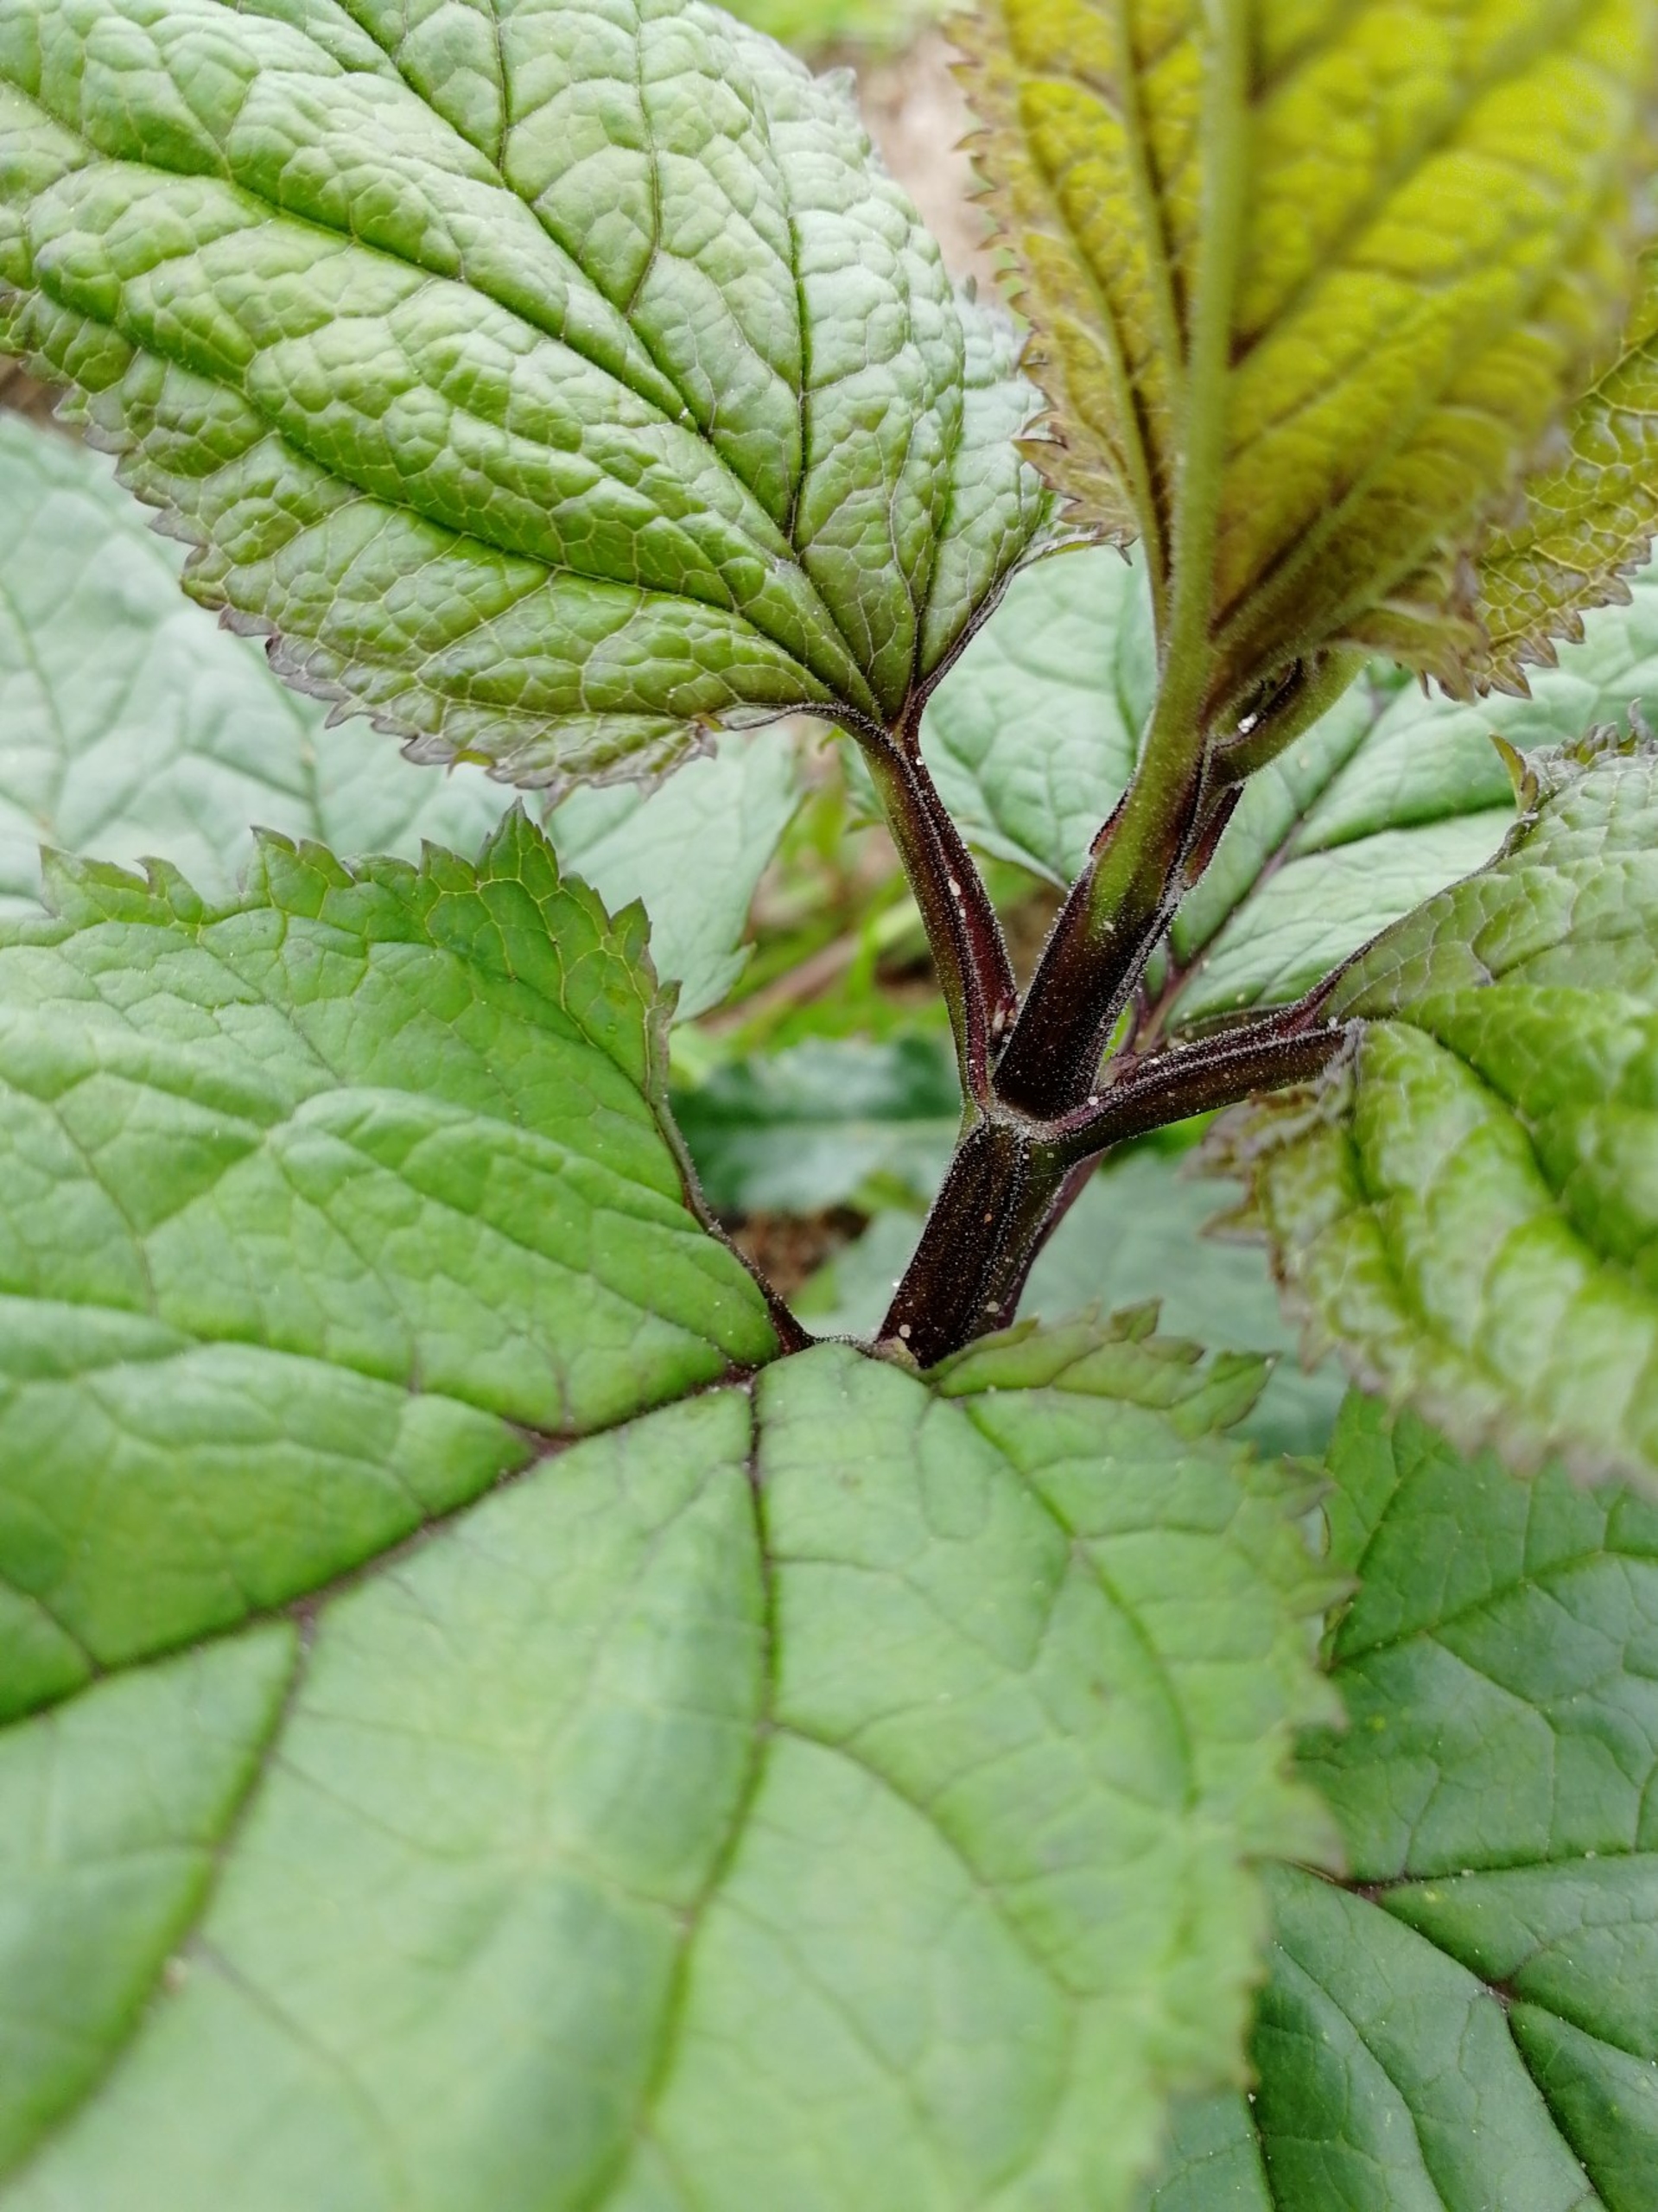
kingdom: Plantae
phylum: Tracheophyta
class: Magnoliopsida
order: Lamiales
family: Scrophulariaceae
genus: Scrophularia
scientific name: Scrophularia nodosa
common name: Knoldet brunrod
